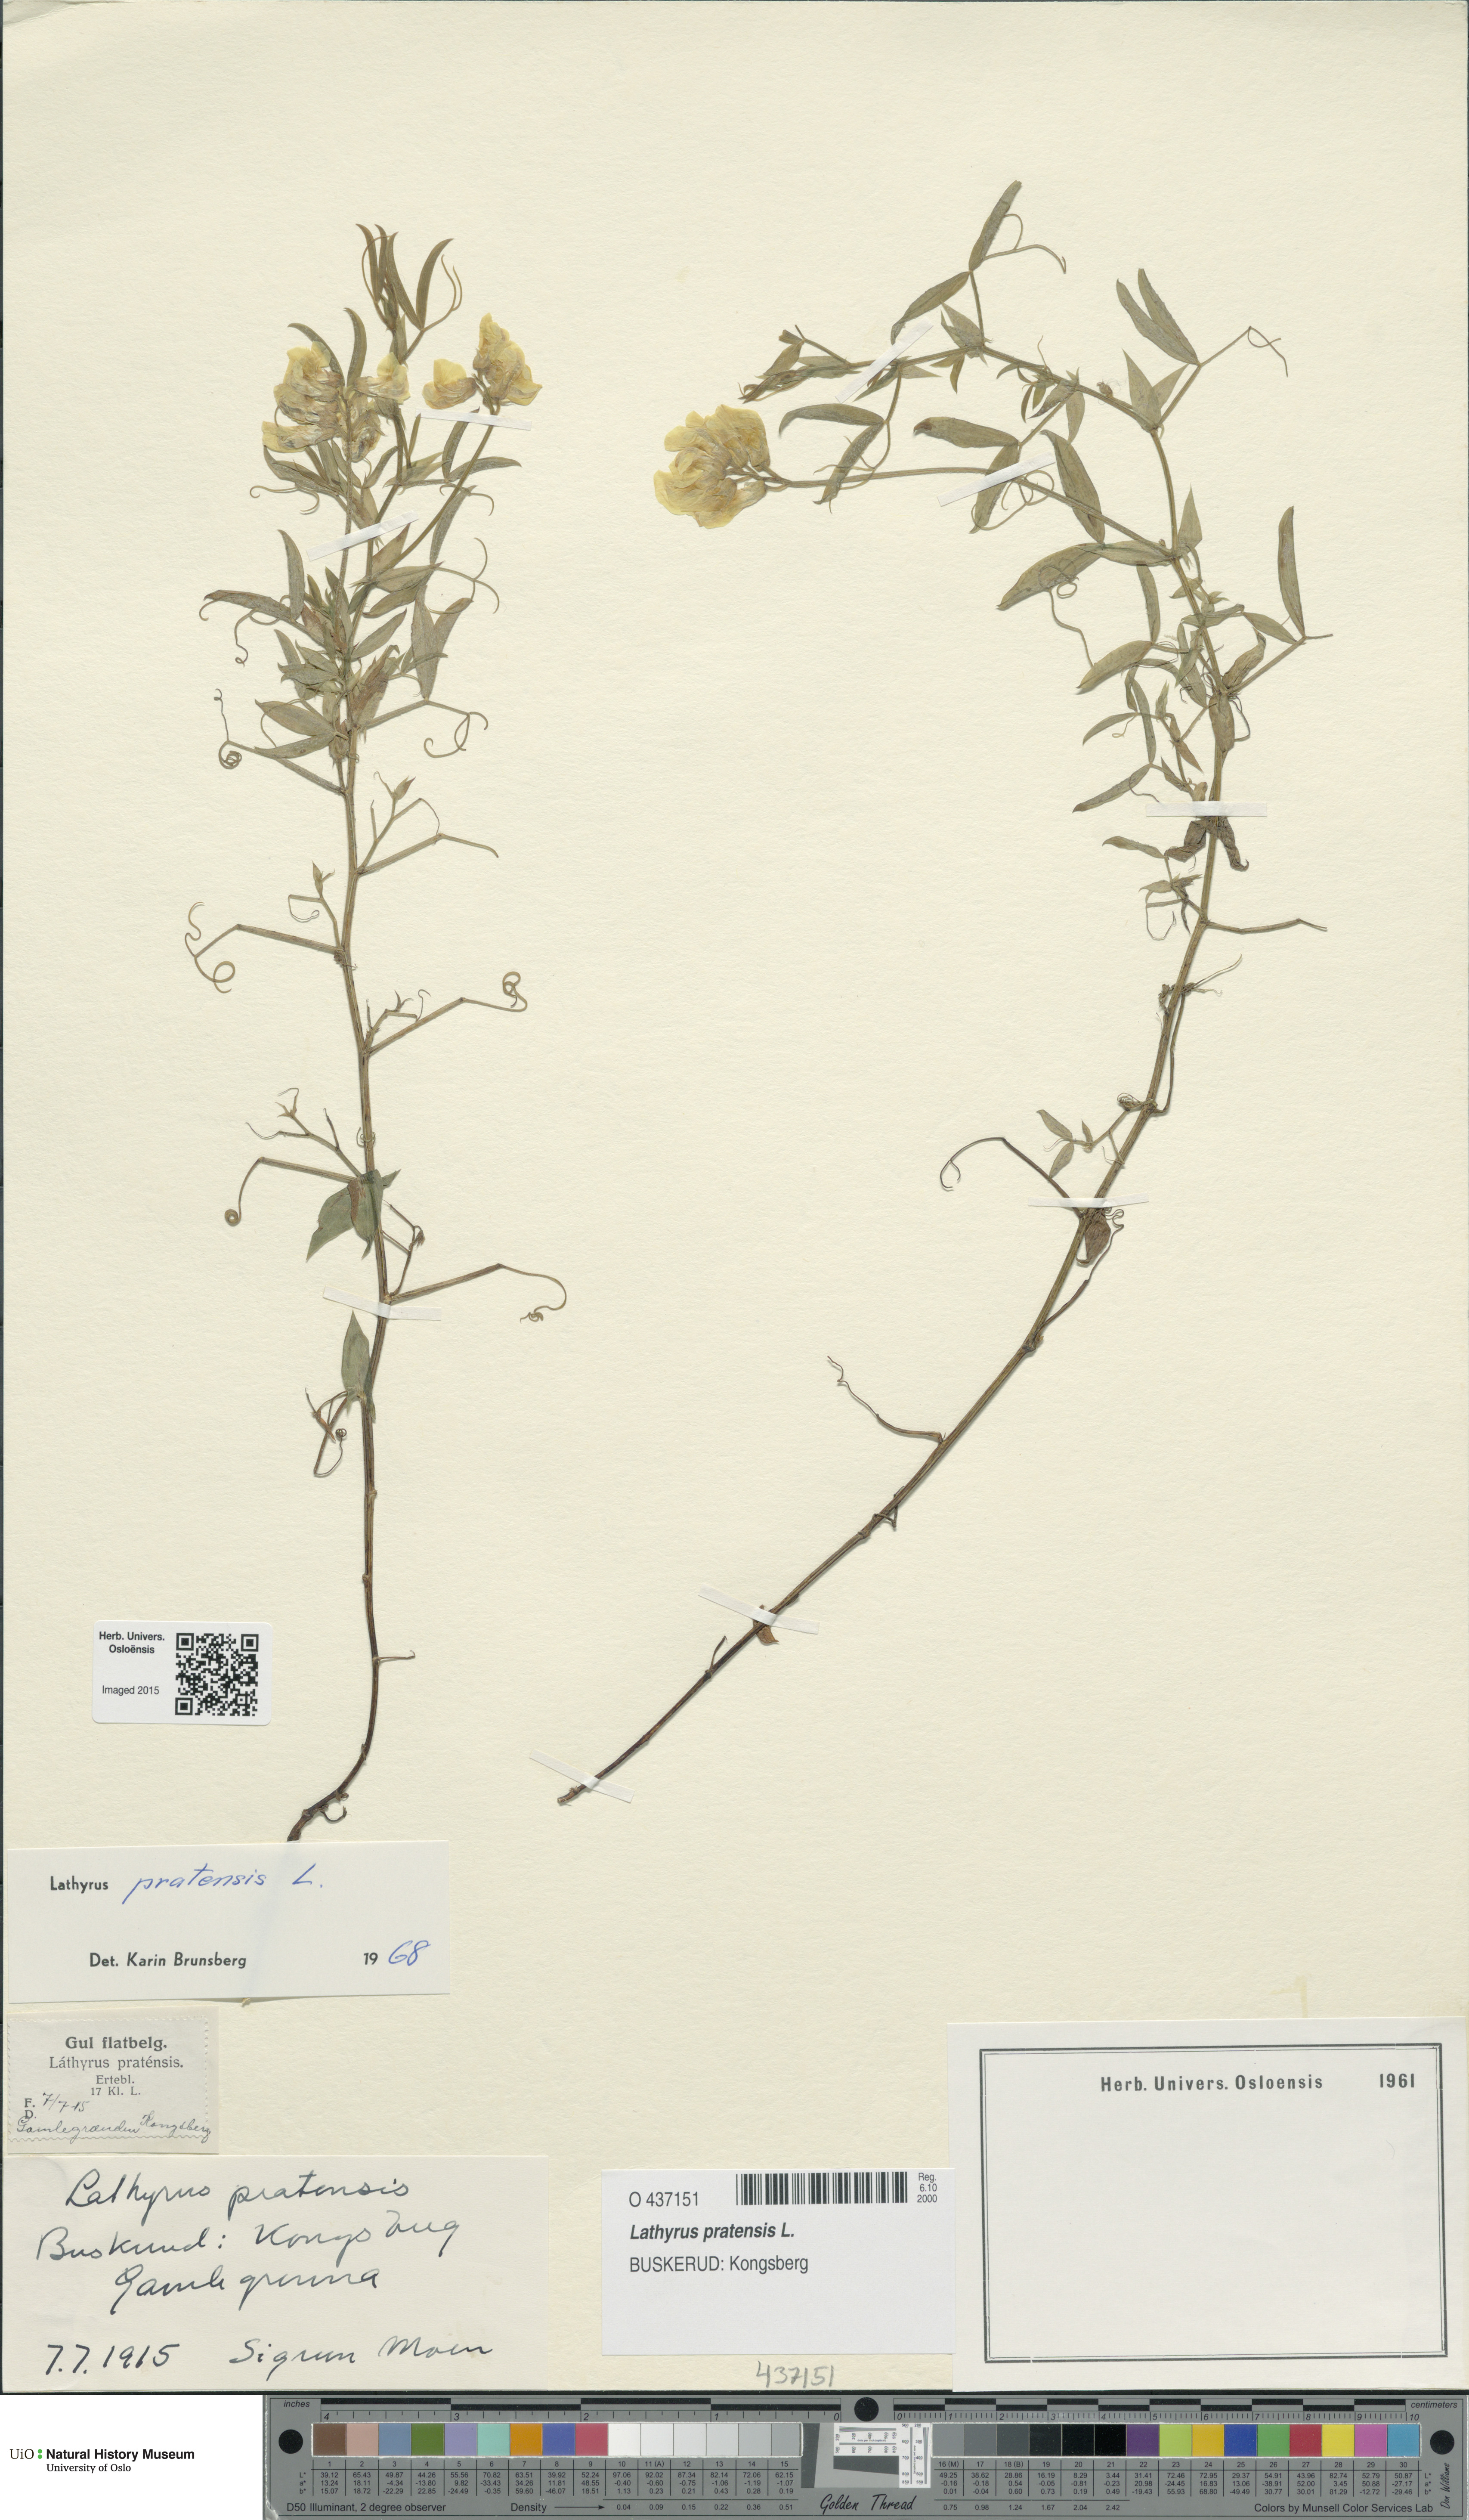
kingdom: Plantae
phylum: Tracheophyta
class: Magnoliopsida
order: Fabales
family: Fabaceae
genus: Lathyrus
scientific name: Lathyrus pratensis
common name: Meadow vetchling
